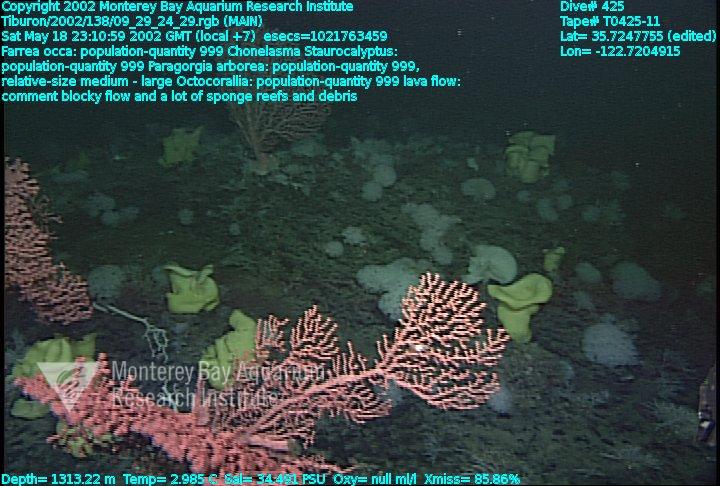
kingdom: Animalia
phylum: Porifera
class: Hexactinellida
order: Sceptrulophora
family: Euretidae
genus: Chonelasma
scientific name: Chonelasma
